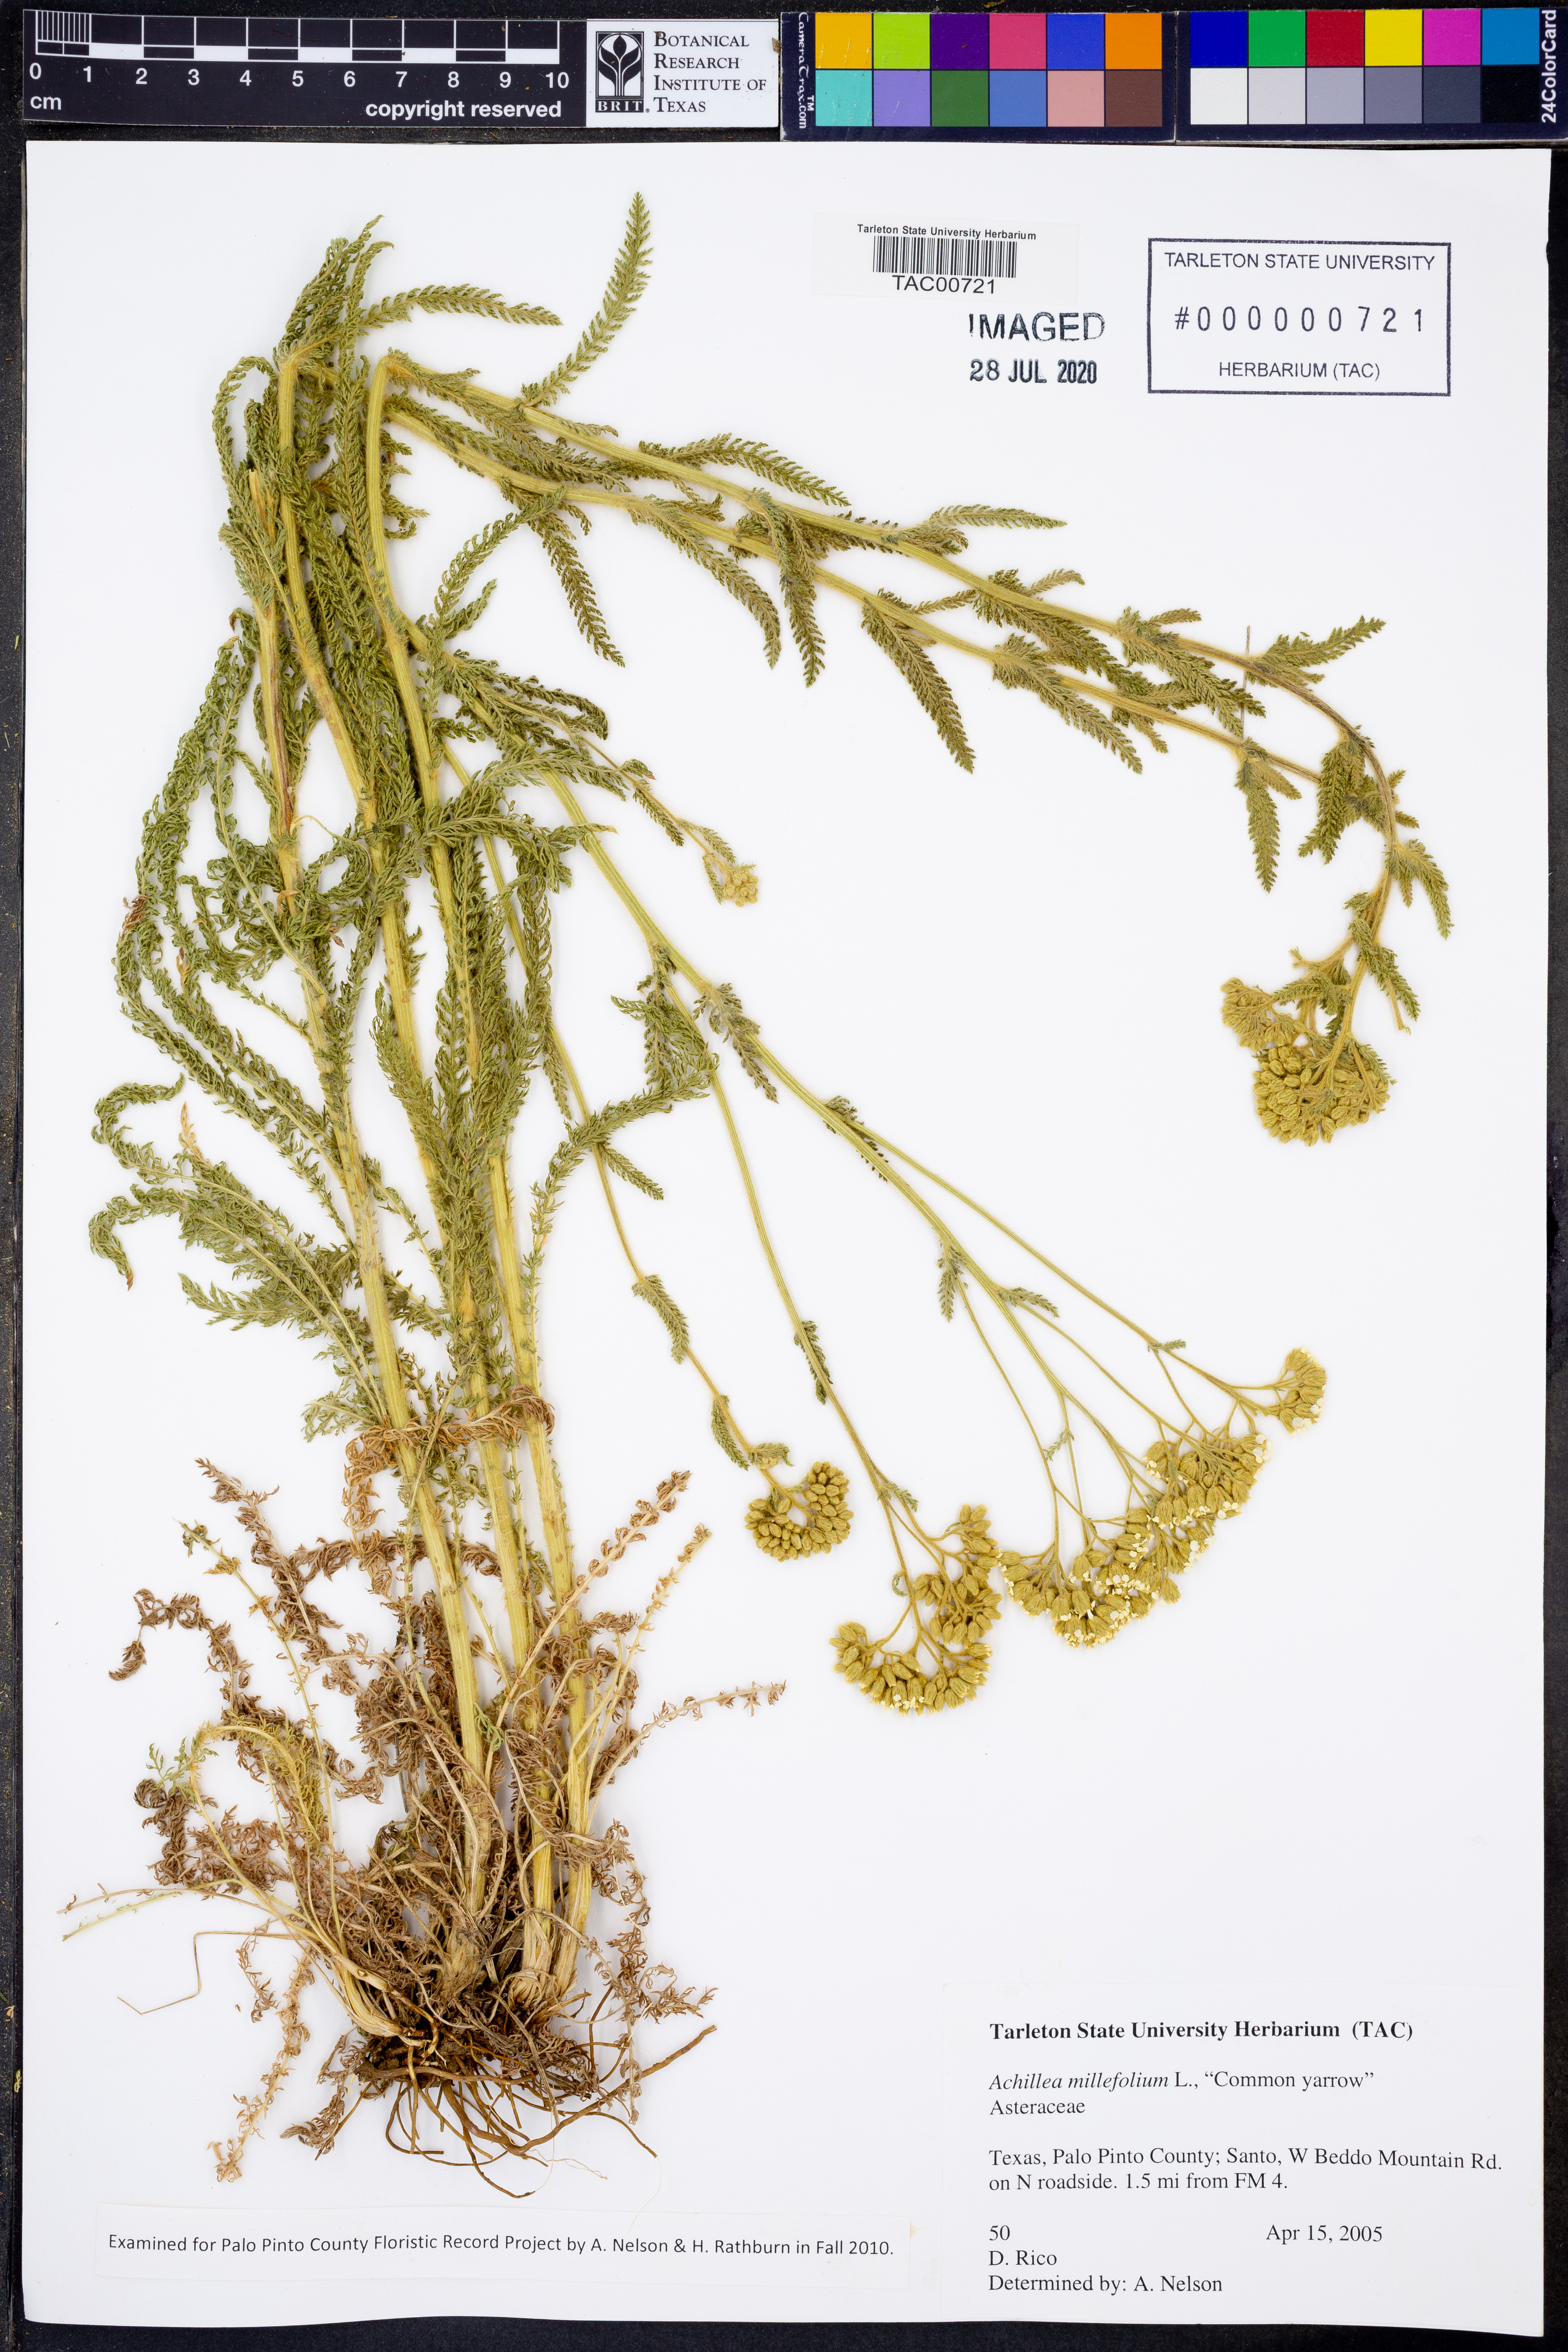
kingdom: Plantae
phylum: Tracheophyta
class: Magnoliopsida
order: Asterales
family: Asteraceae
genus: Achillea
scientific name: Achillea millefolium
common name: Yarrow
